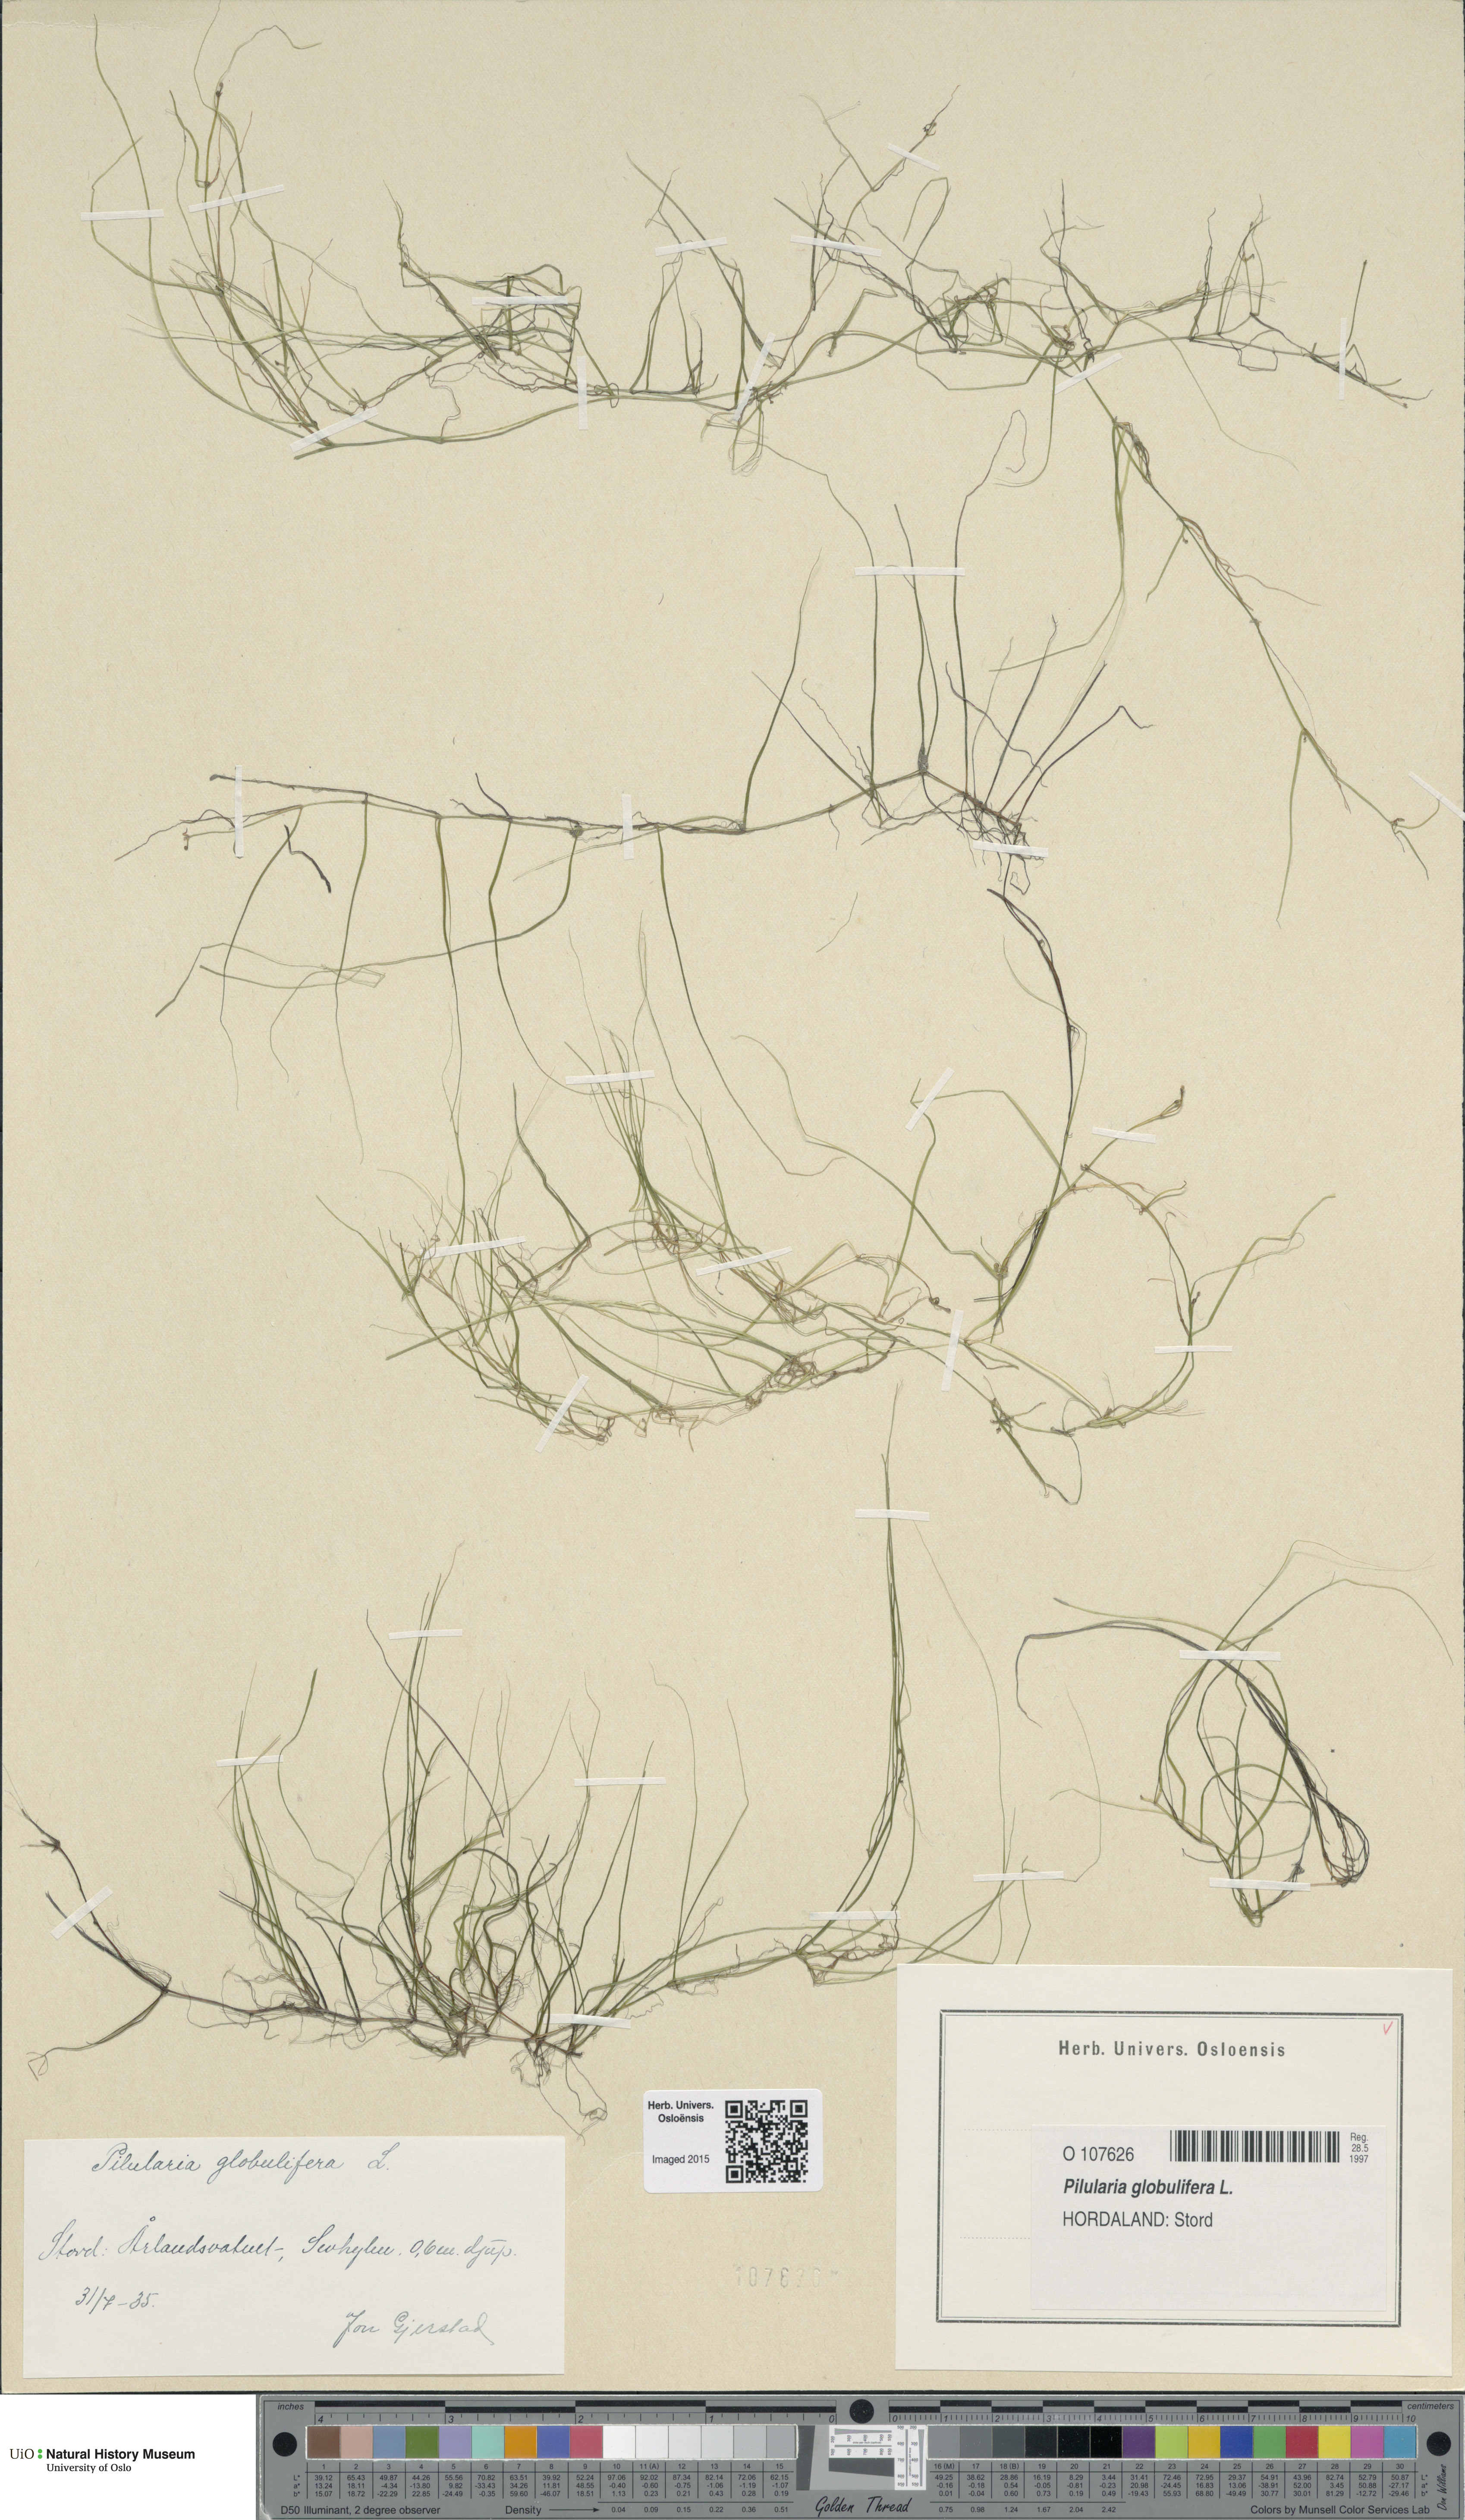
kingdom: Plantae
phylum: Tracheophyta
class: Polypodiopsida
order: Salviniales
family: Marsileaceae
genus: Pilularia
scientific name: Pilularia globulifera
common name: Pillwort
